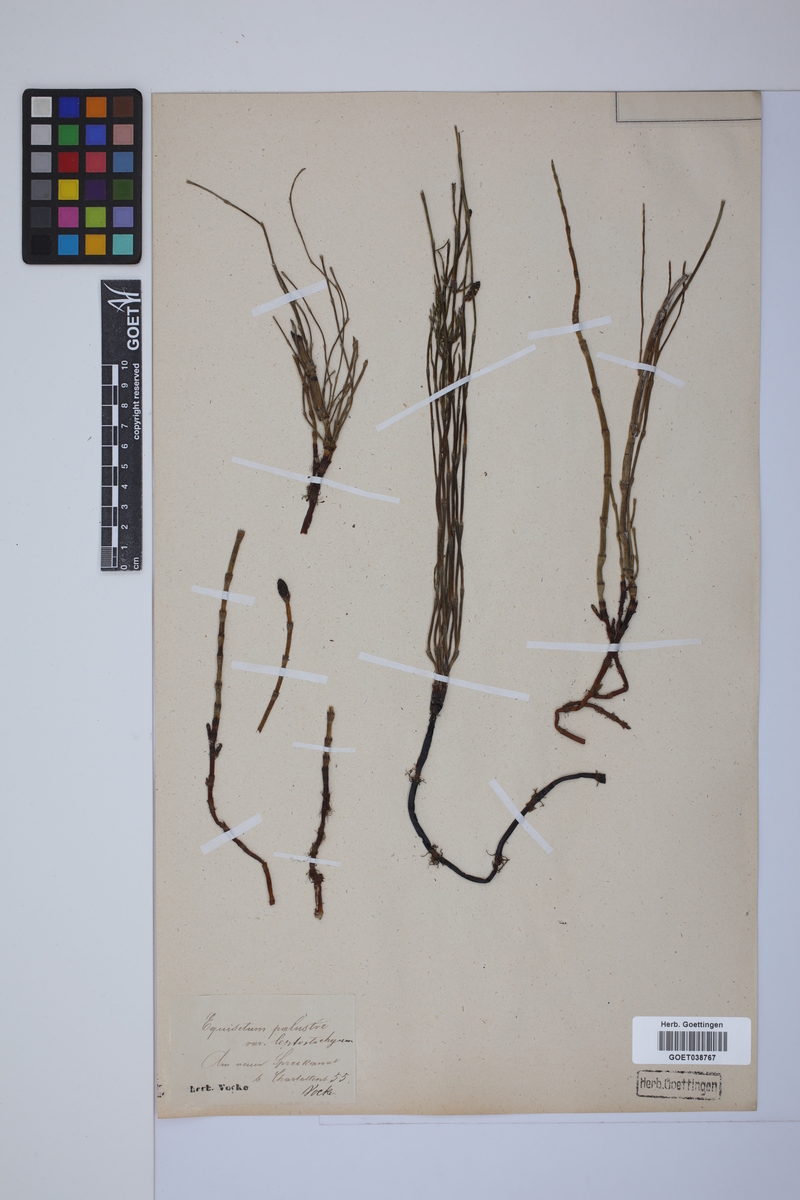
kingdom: Plantae
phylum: Tracheophyta
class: Polypodiopsida
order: Equisetales
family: Equisetaceae
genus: Equisetum
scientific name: Equisetum palustre
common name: Marsh horsetail
